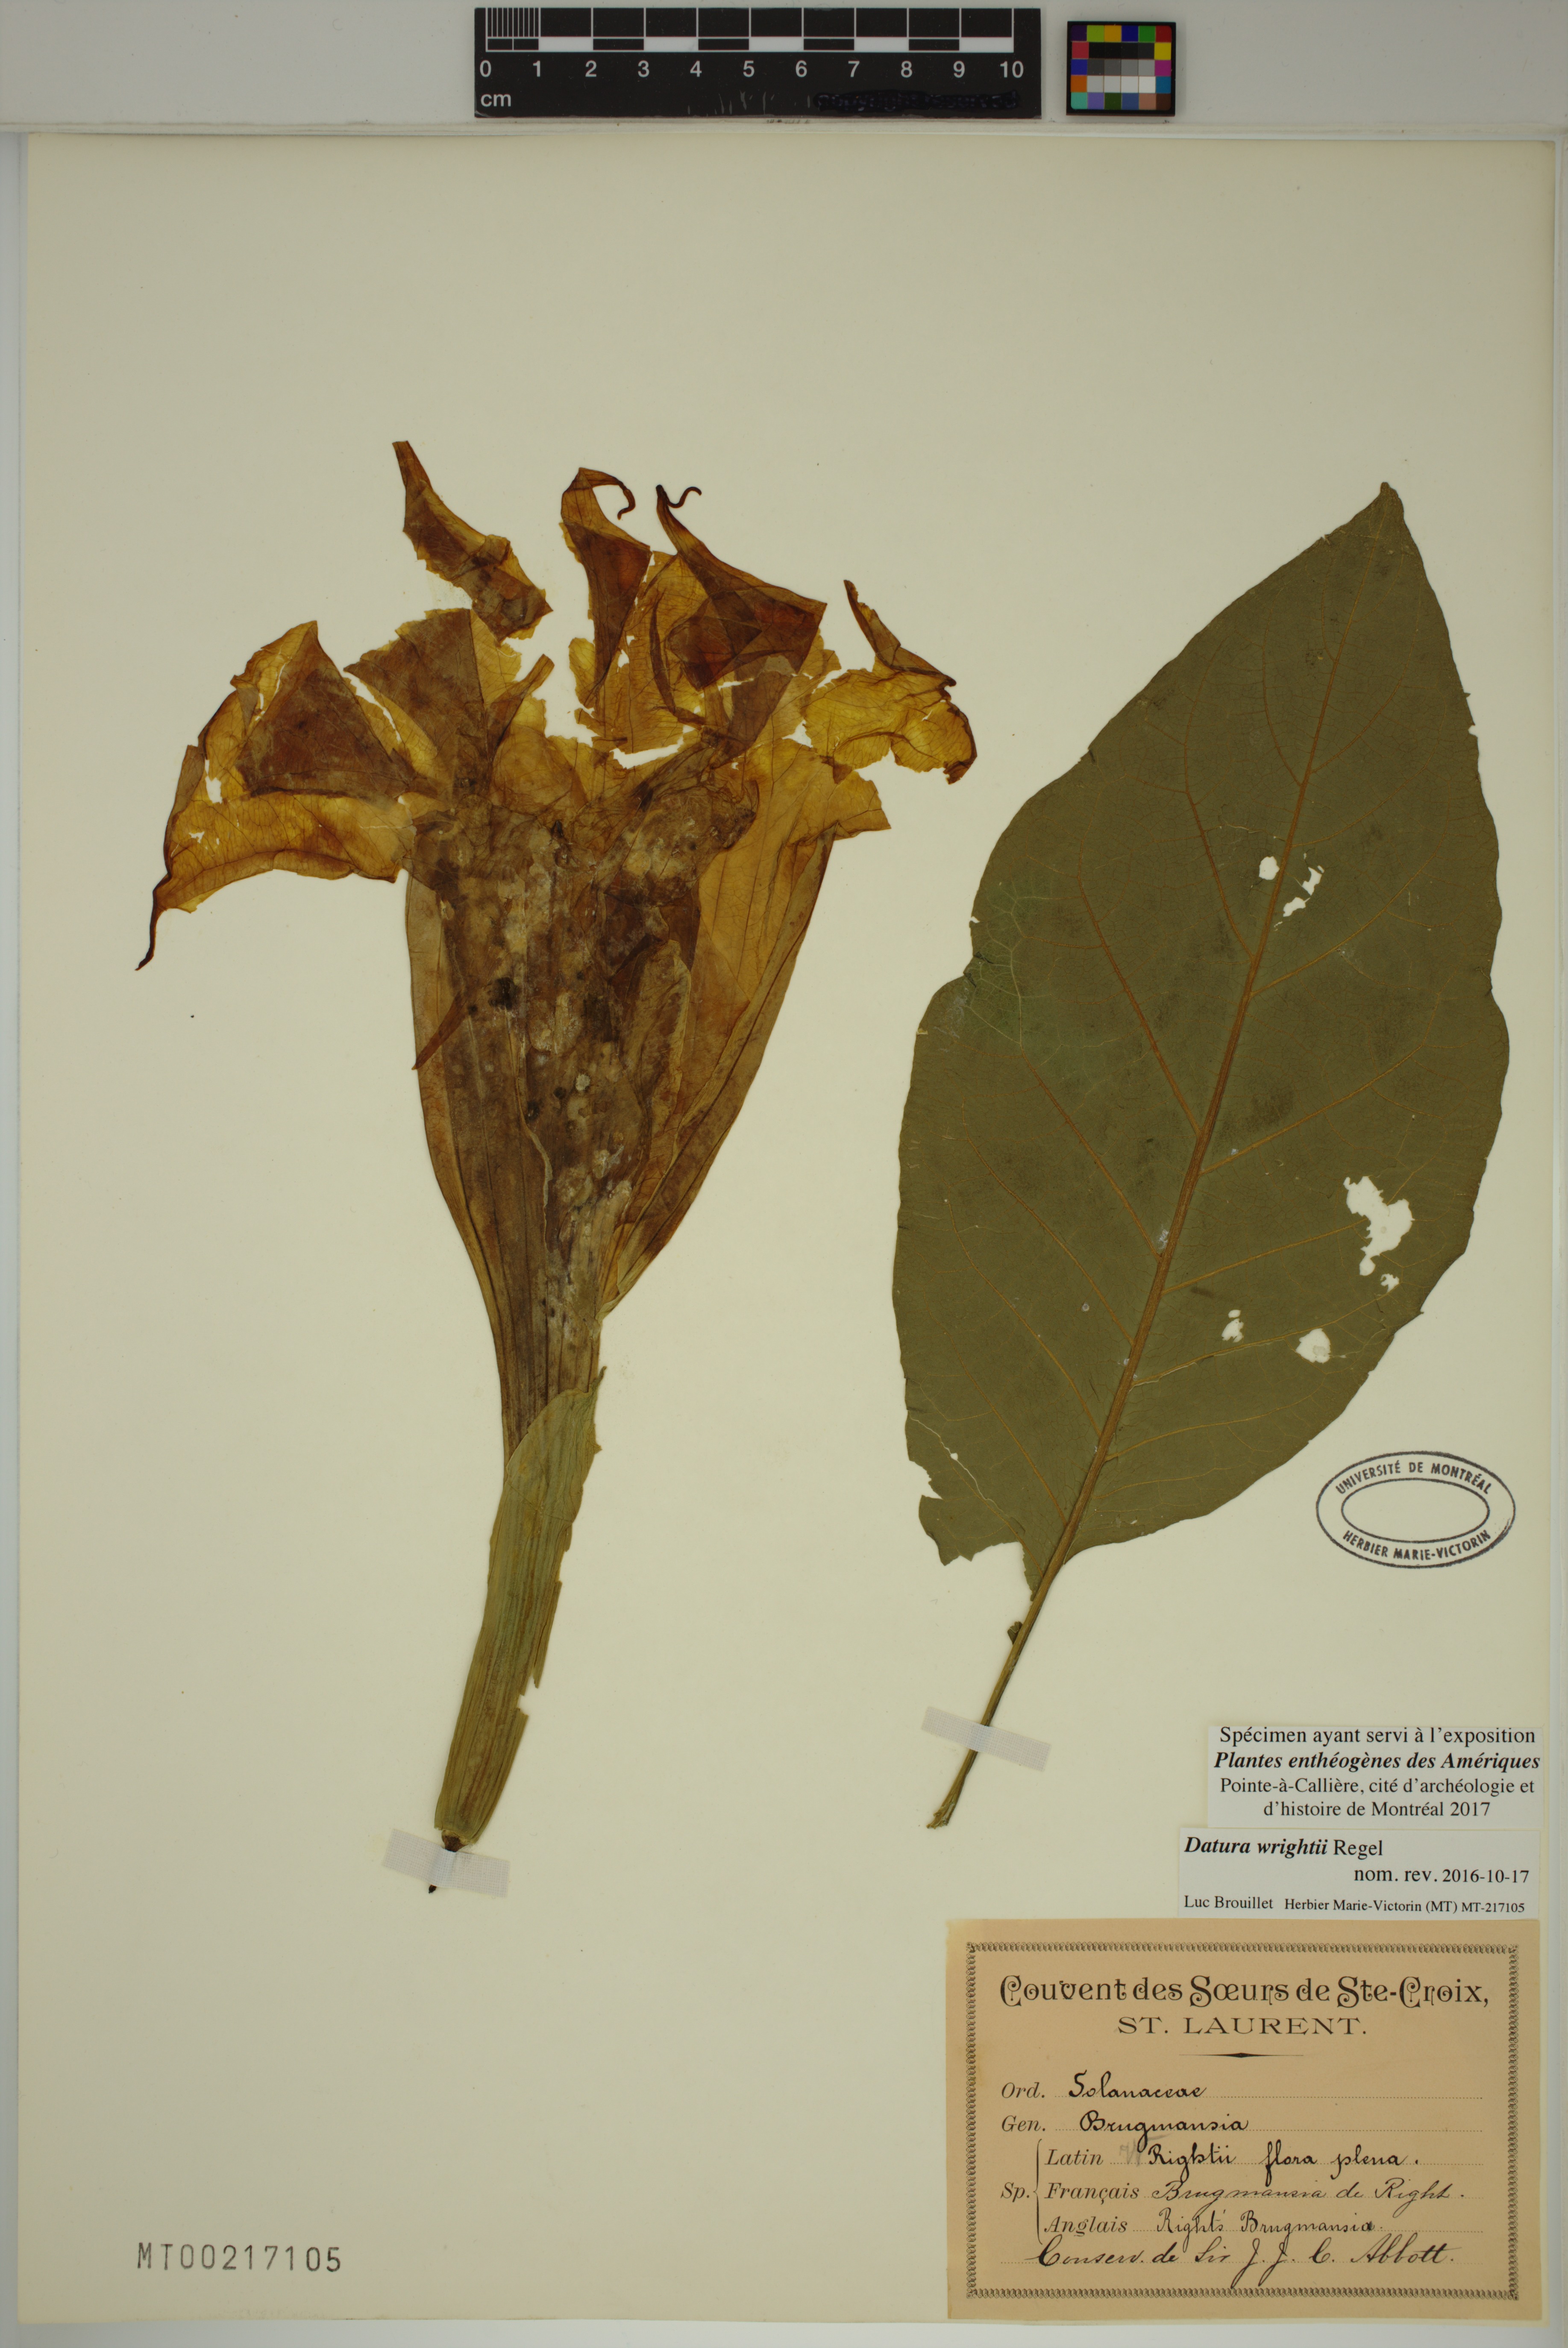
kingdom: Plantae
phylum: Tracheophyta
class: Magnoliopsida
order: Solanales
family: Solanaceae
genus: Datura
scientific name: Datura wrightii
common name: Sacred thorn-apple
